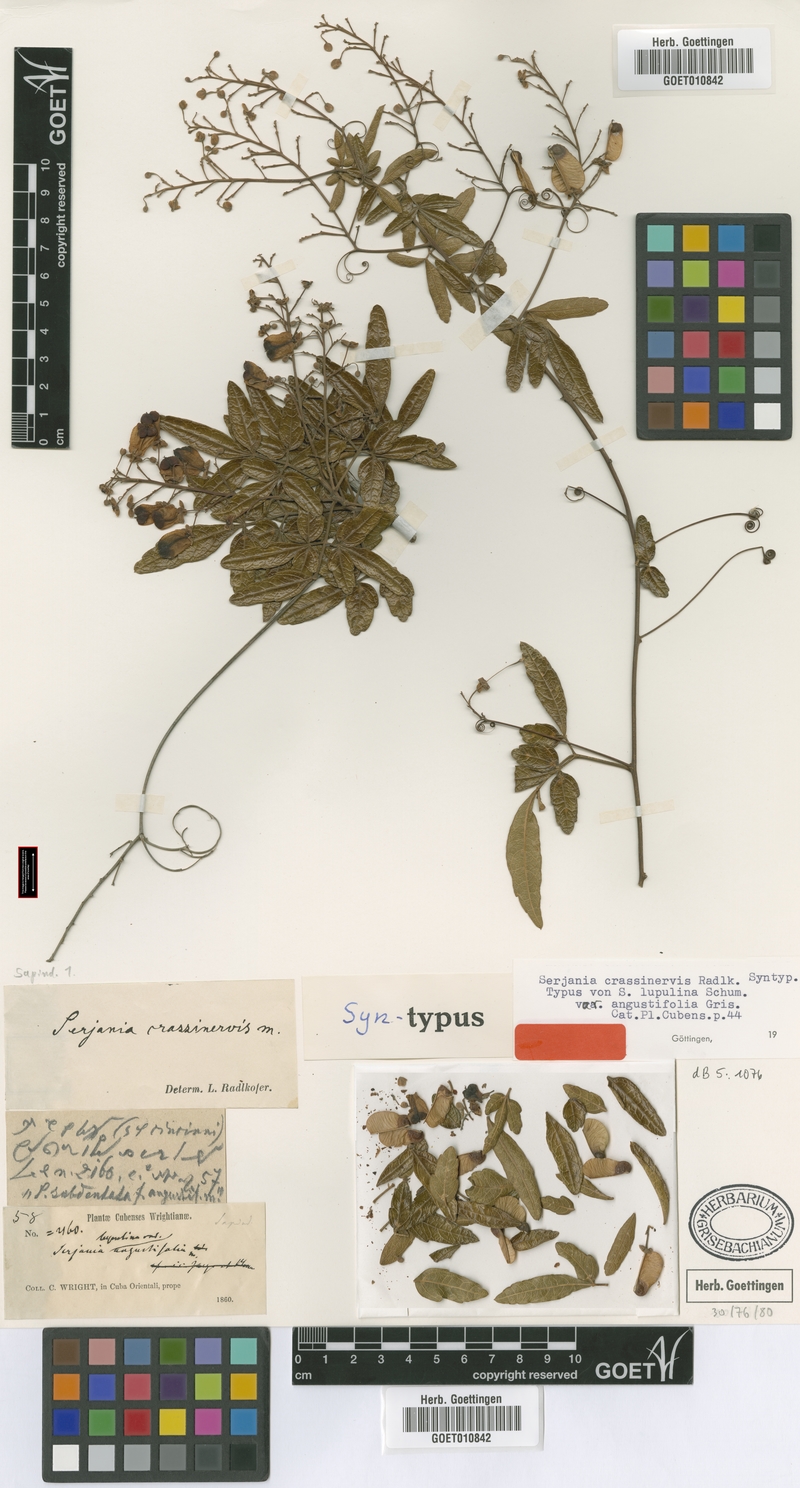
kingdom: Plantae
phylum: Tracheophyta
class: Magnoliopsida
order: Sapindales
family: Sapindaceae
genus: Serjania
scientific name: Serjania crassinervis
